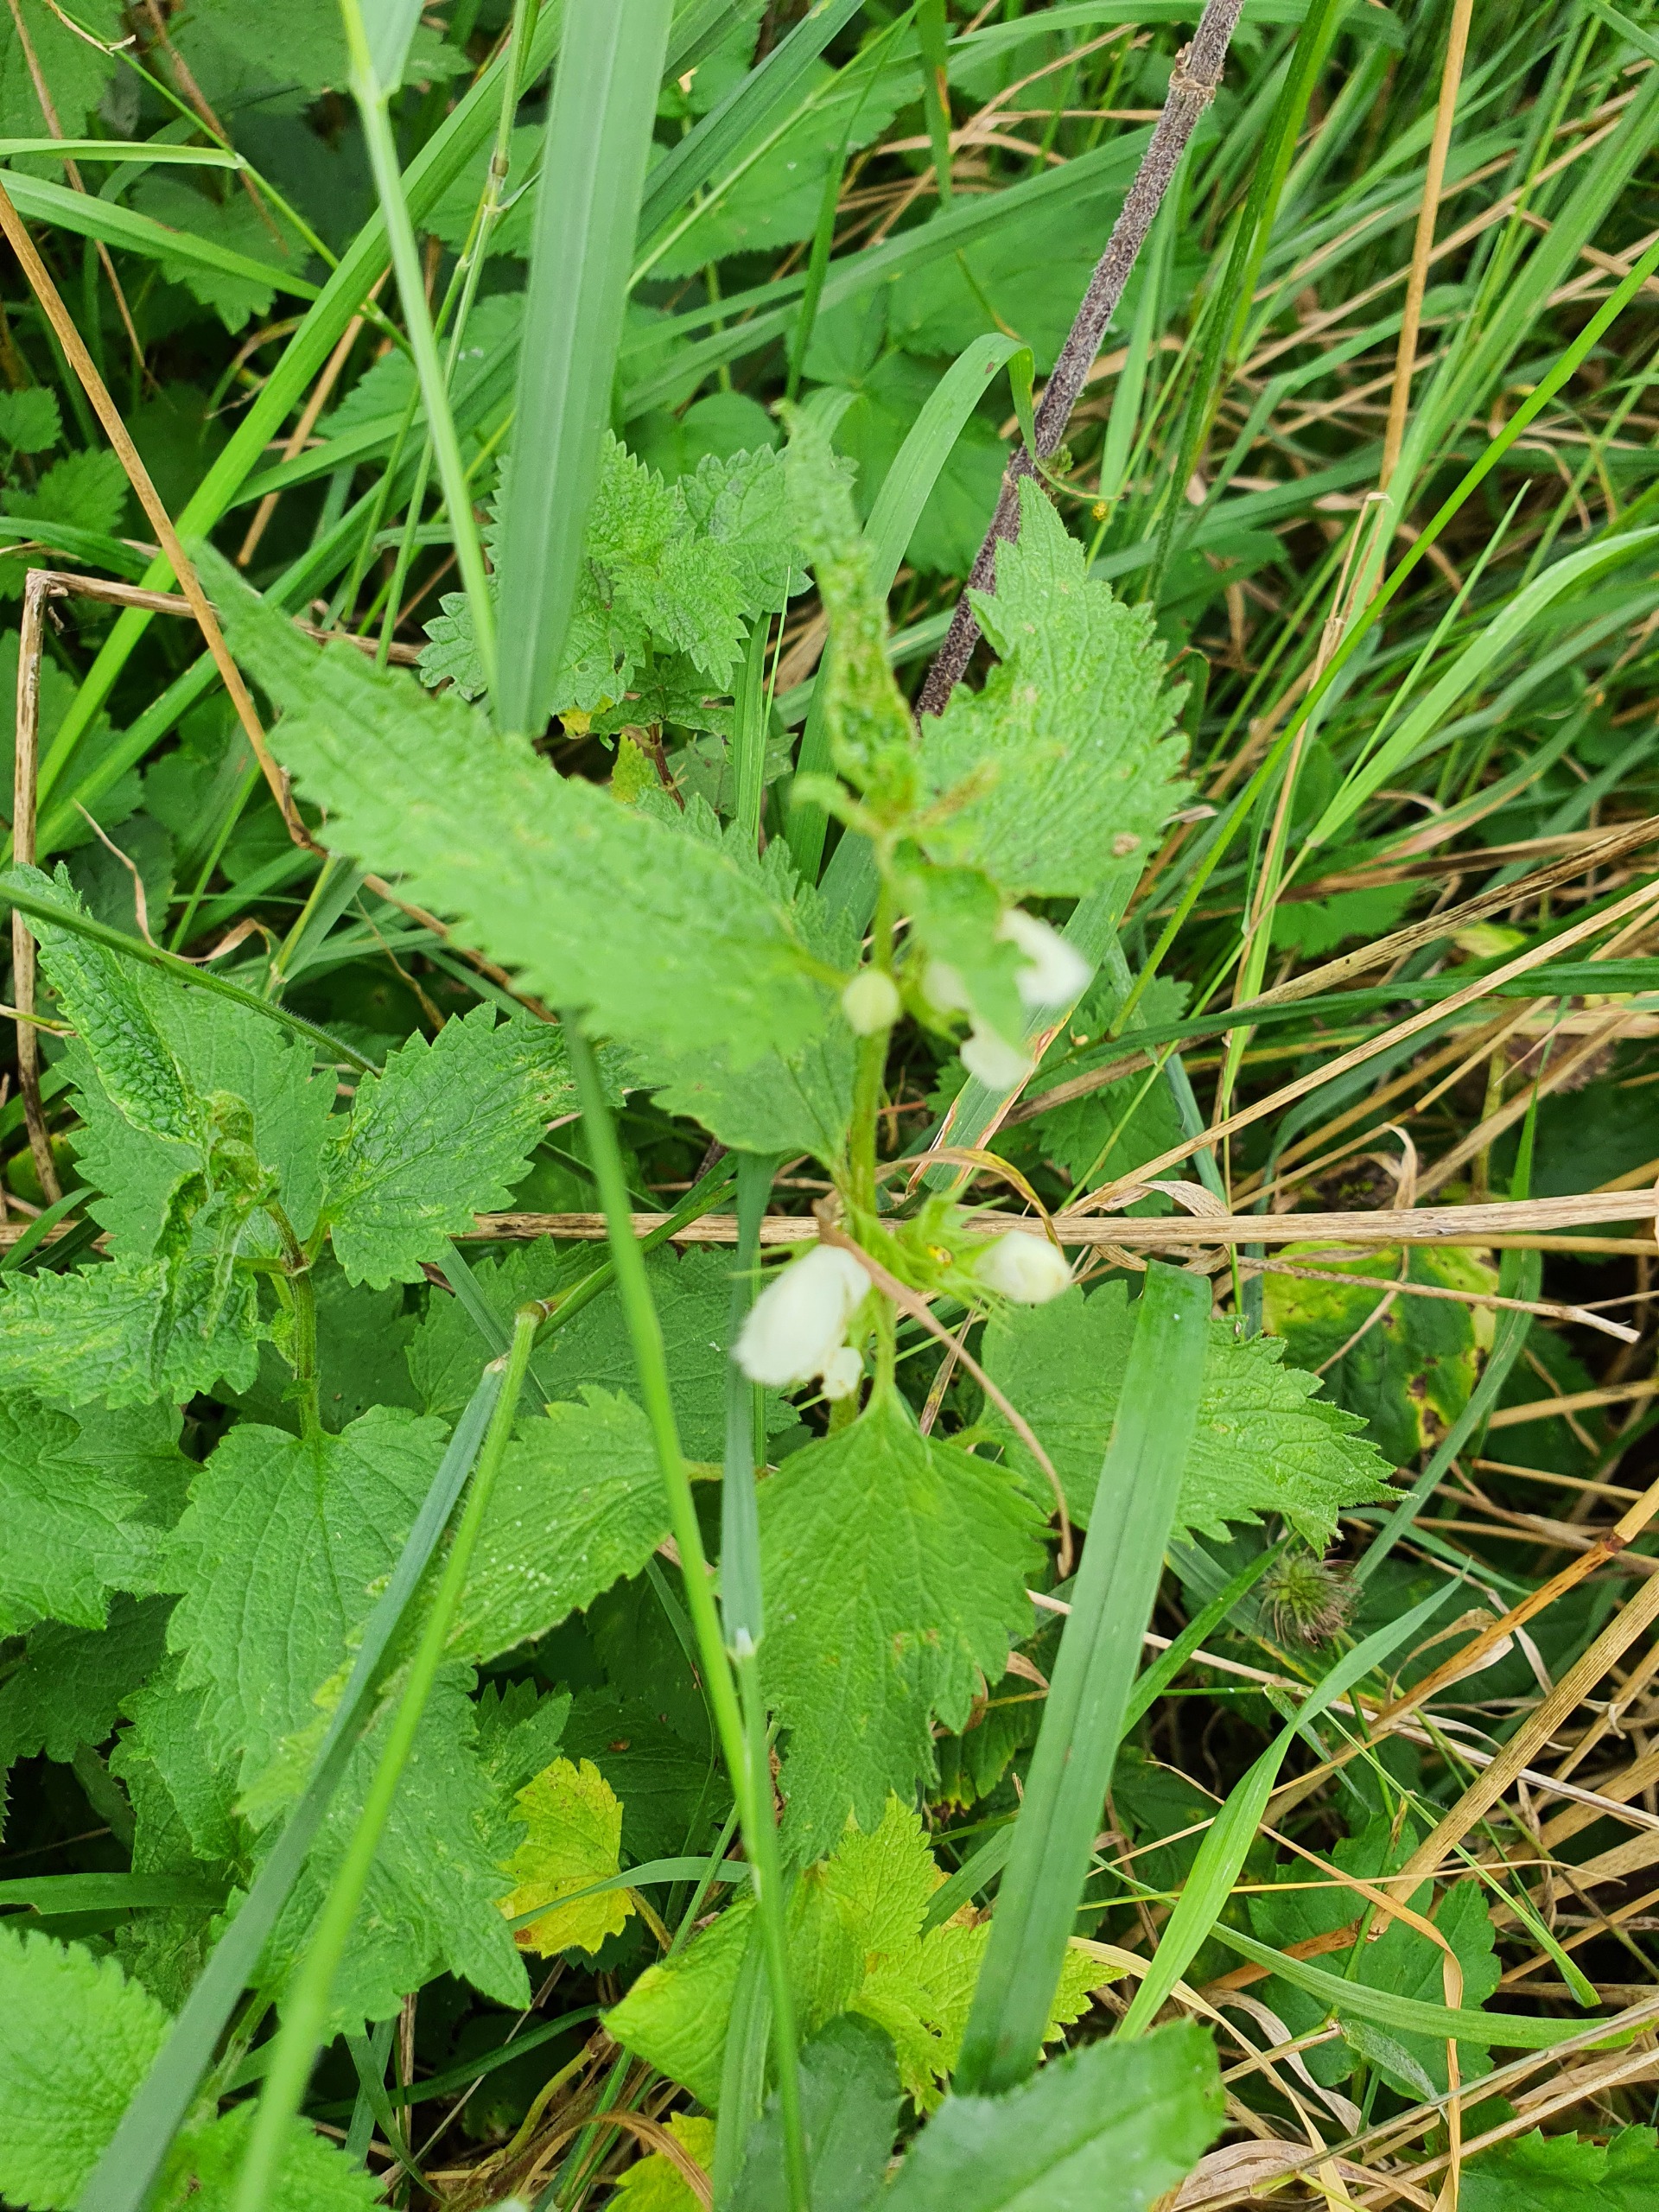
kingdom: Plantae
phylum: Tracheophyta
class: Magnoliopsida
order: Lamiales
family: Lamiaceae
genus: Lamium
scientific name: Lamium album
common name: Døvnælde
